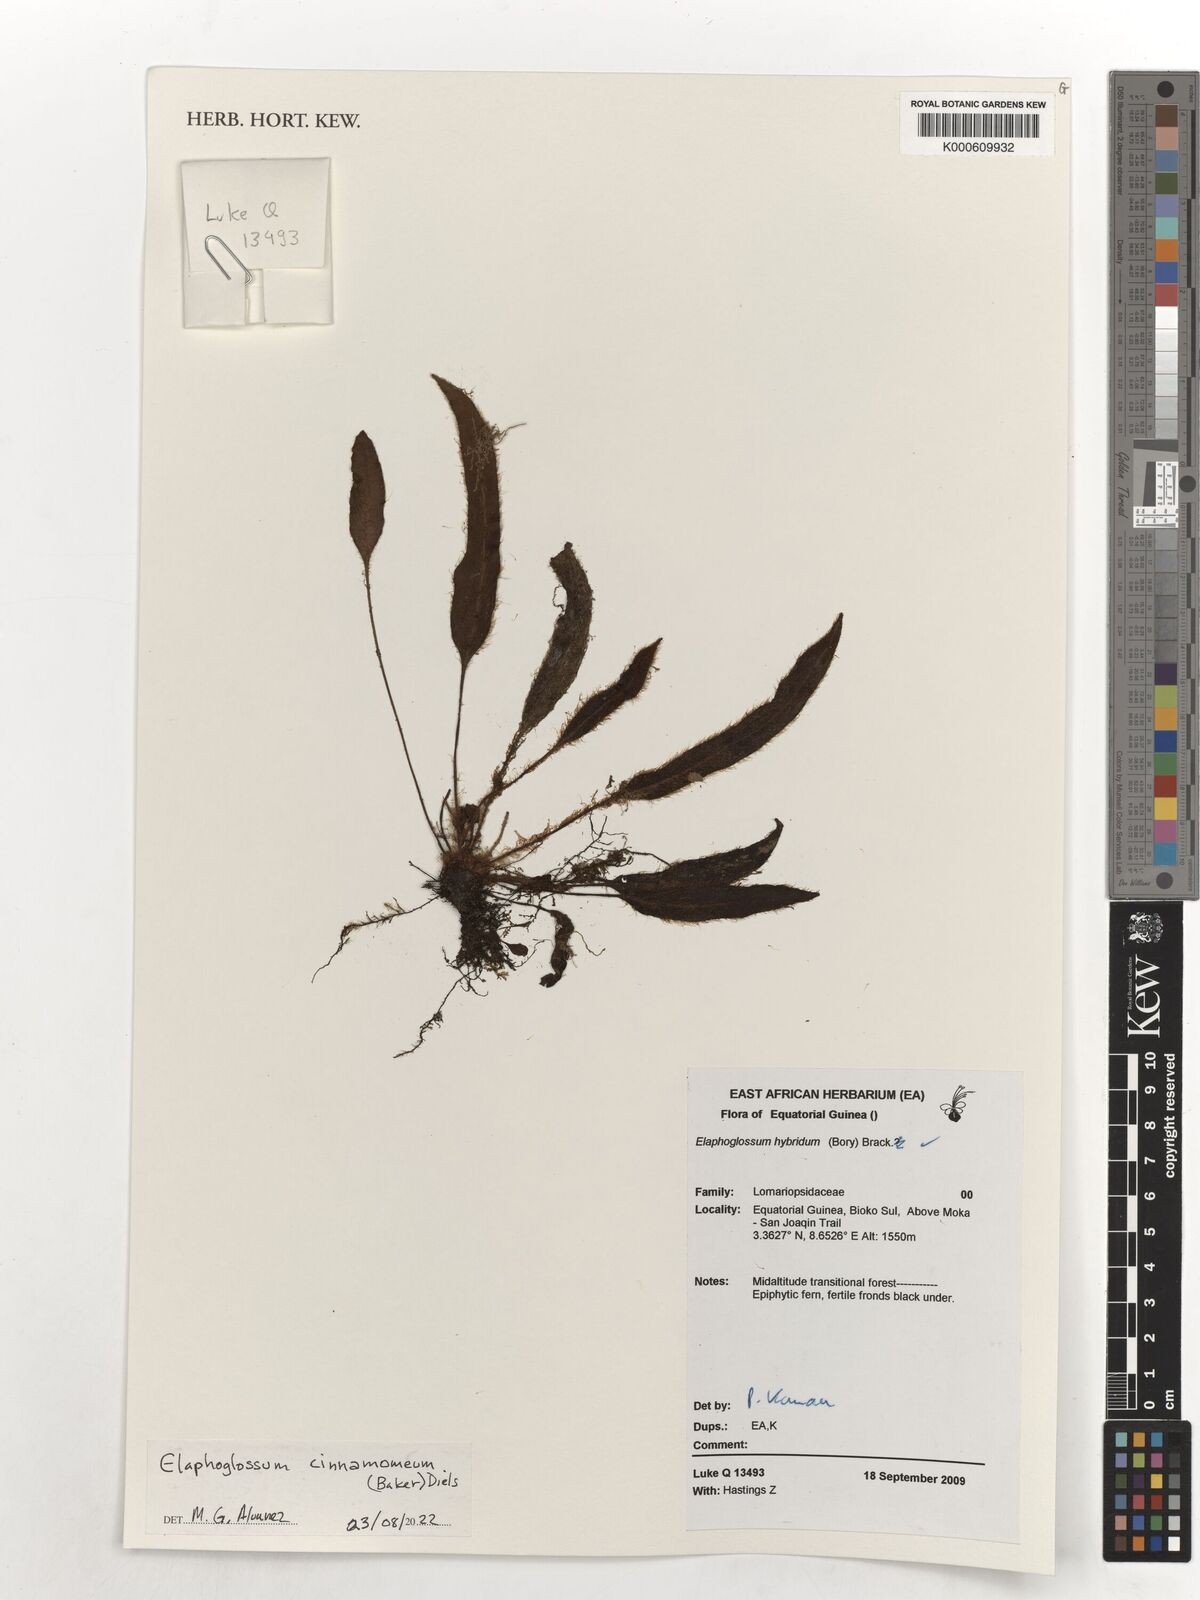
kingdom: Plantae
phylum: Tracheophyta
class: Polypodiopsida
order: Polypodiales
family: Dryopteridaceae
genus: Elaphoglossum
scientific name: Elaphoglossum cinnamomeum
